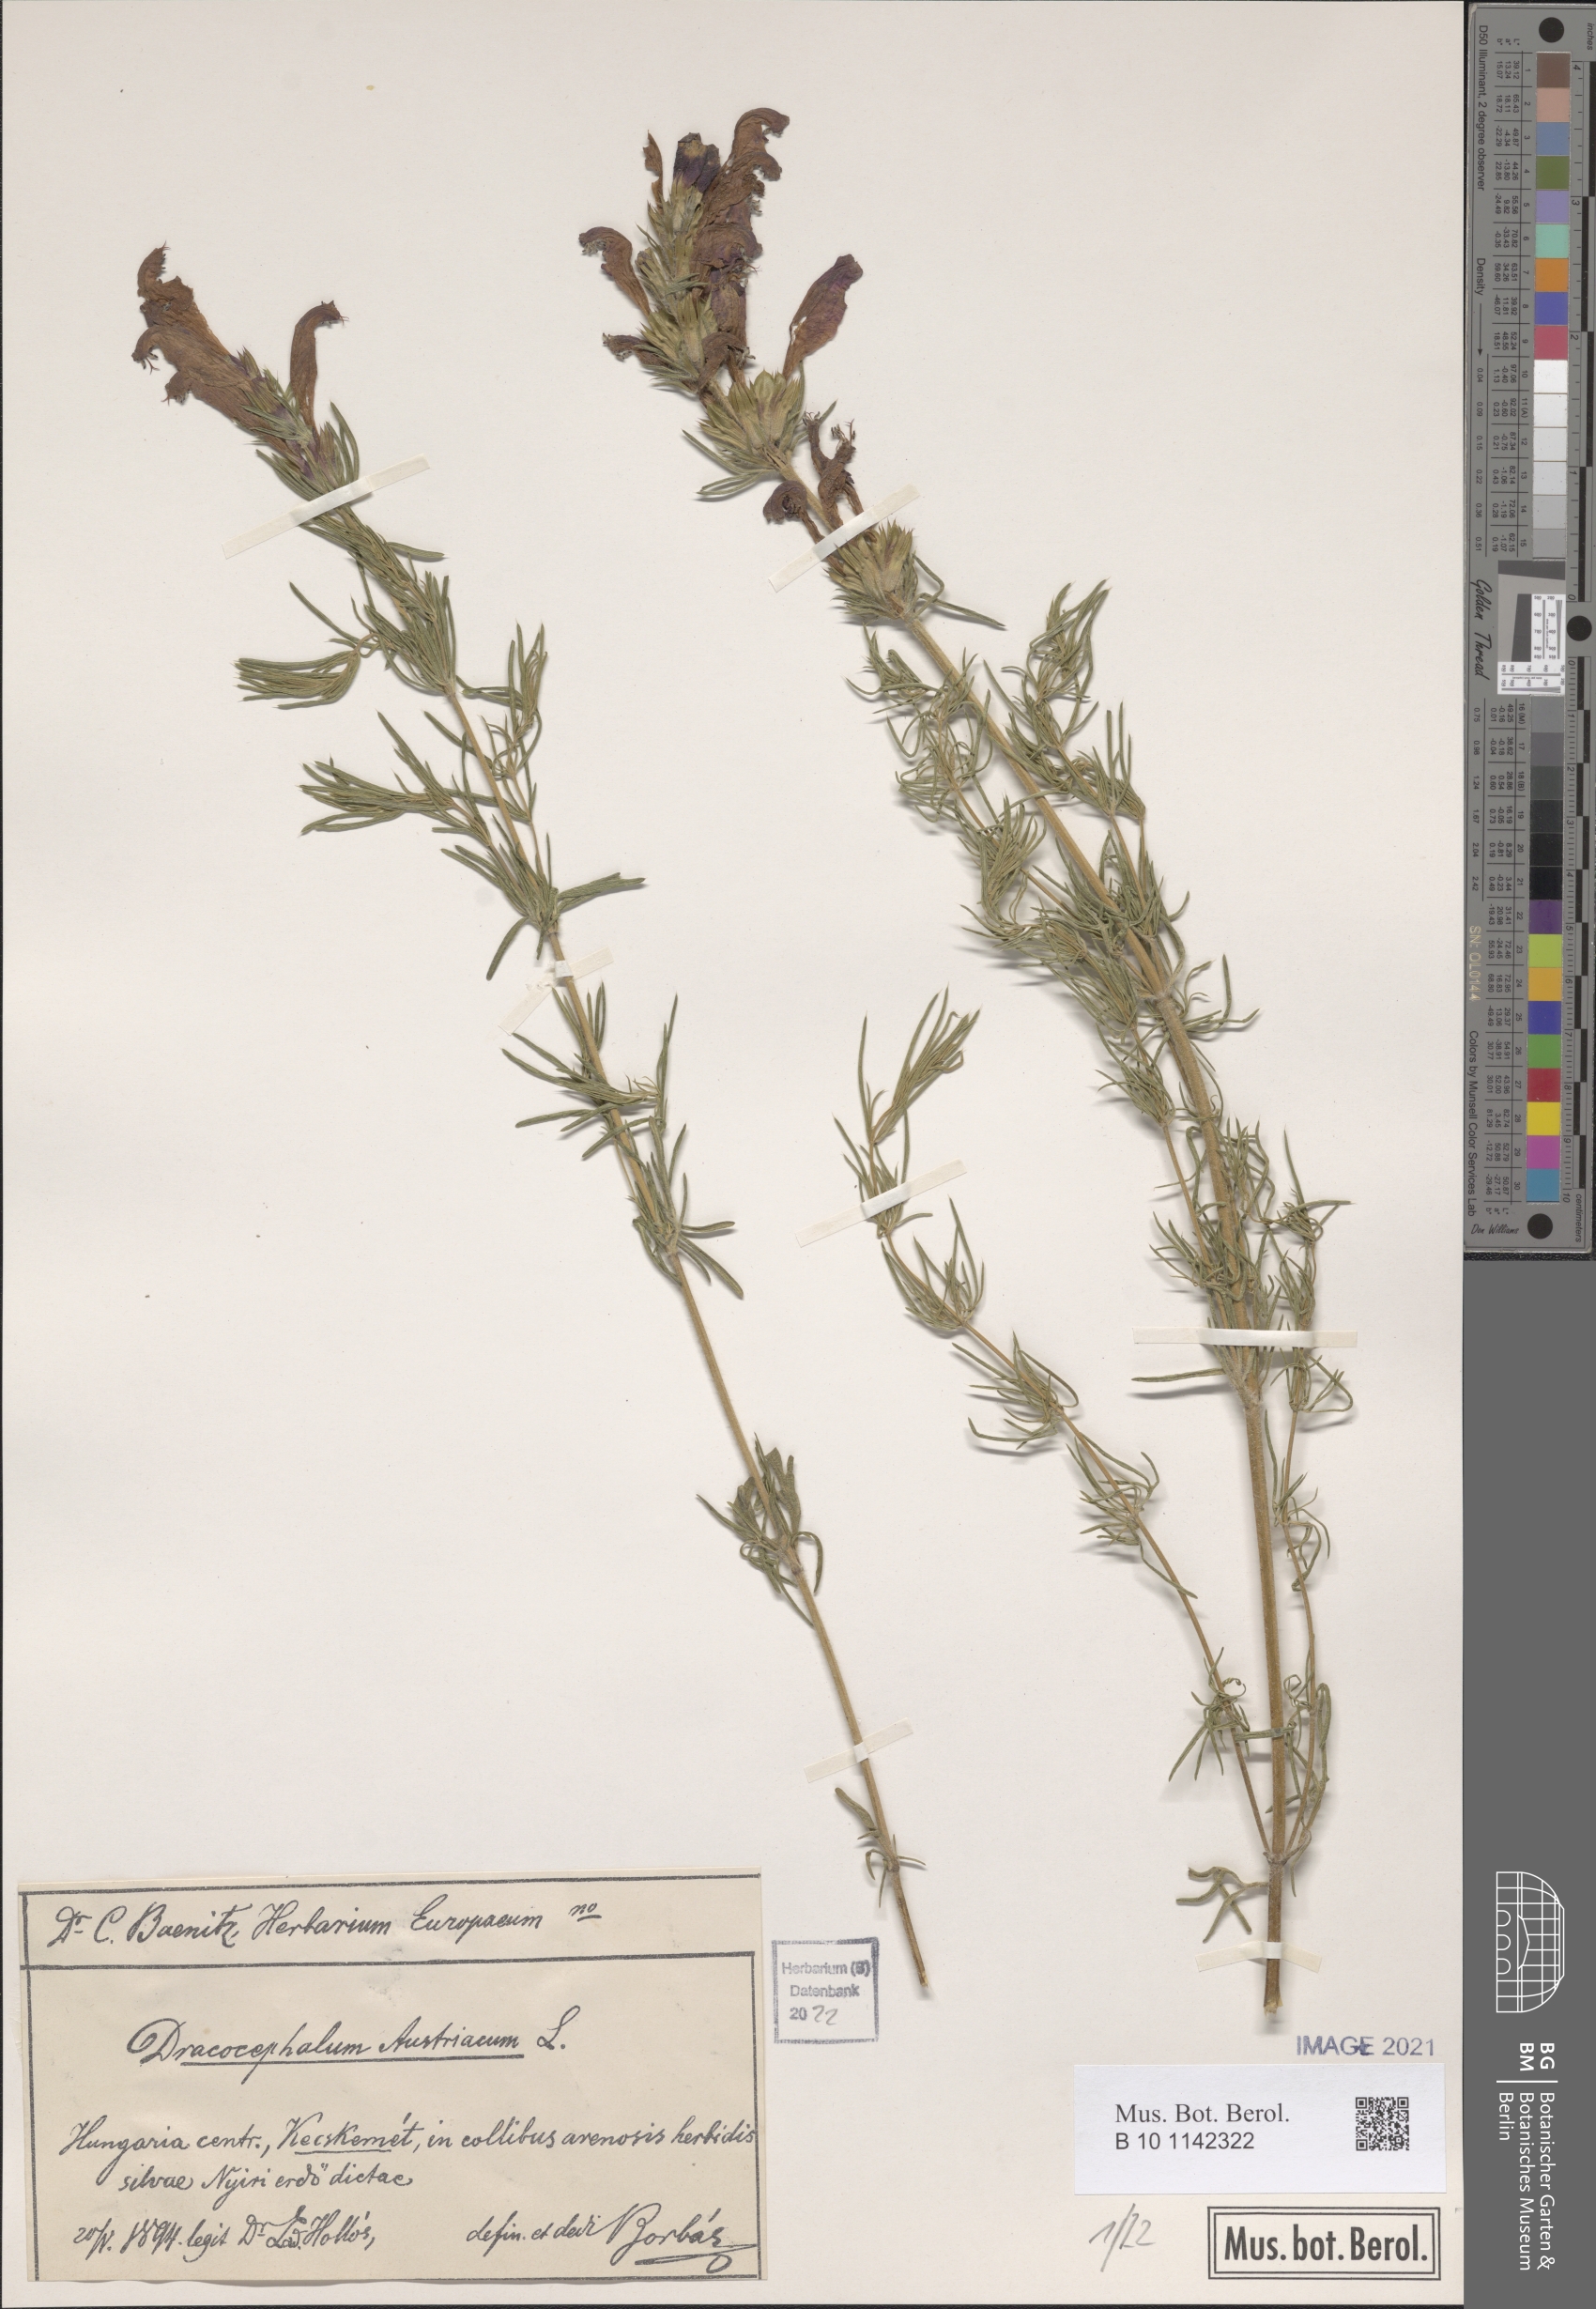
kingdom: Plantae
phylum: Tracheophyta
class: Magnoliopsida
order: Lamiales
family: Lamiaceae
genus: Dracocephalum
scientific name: Dracocephalum austriacum
